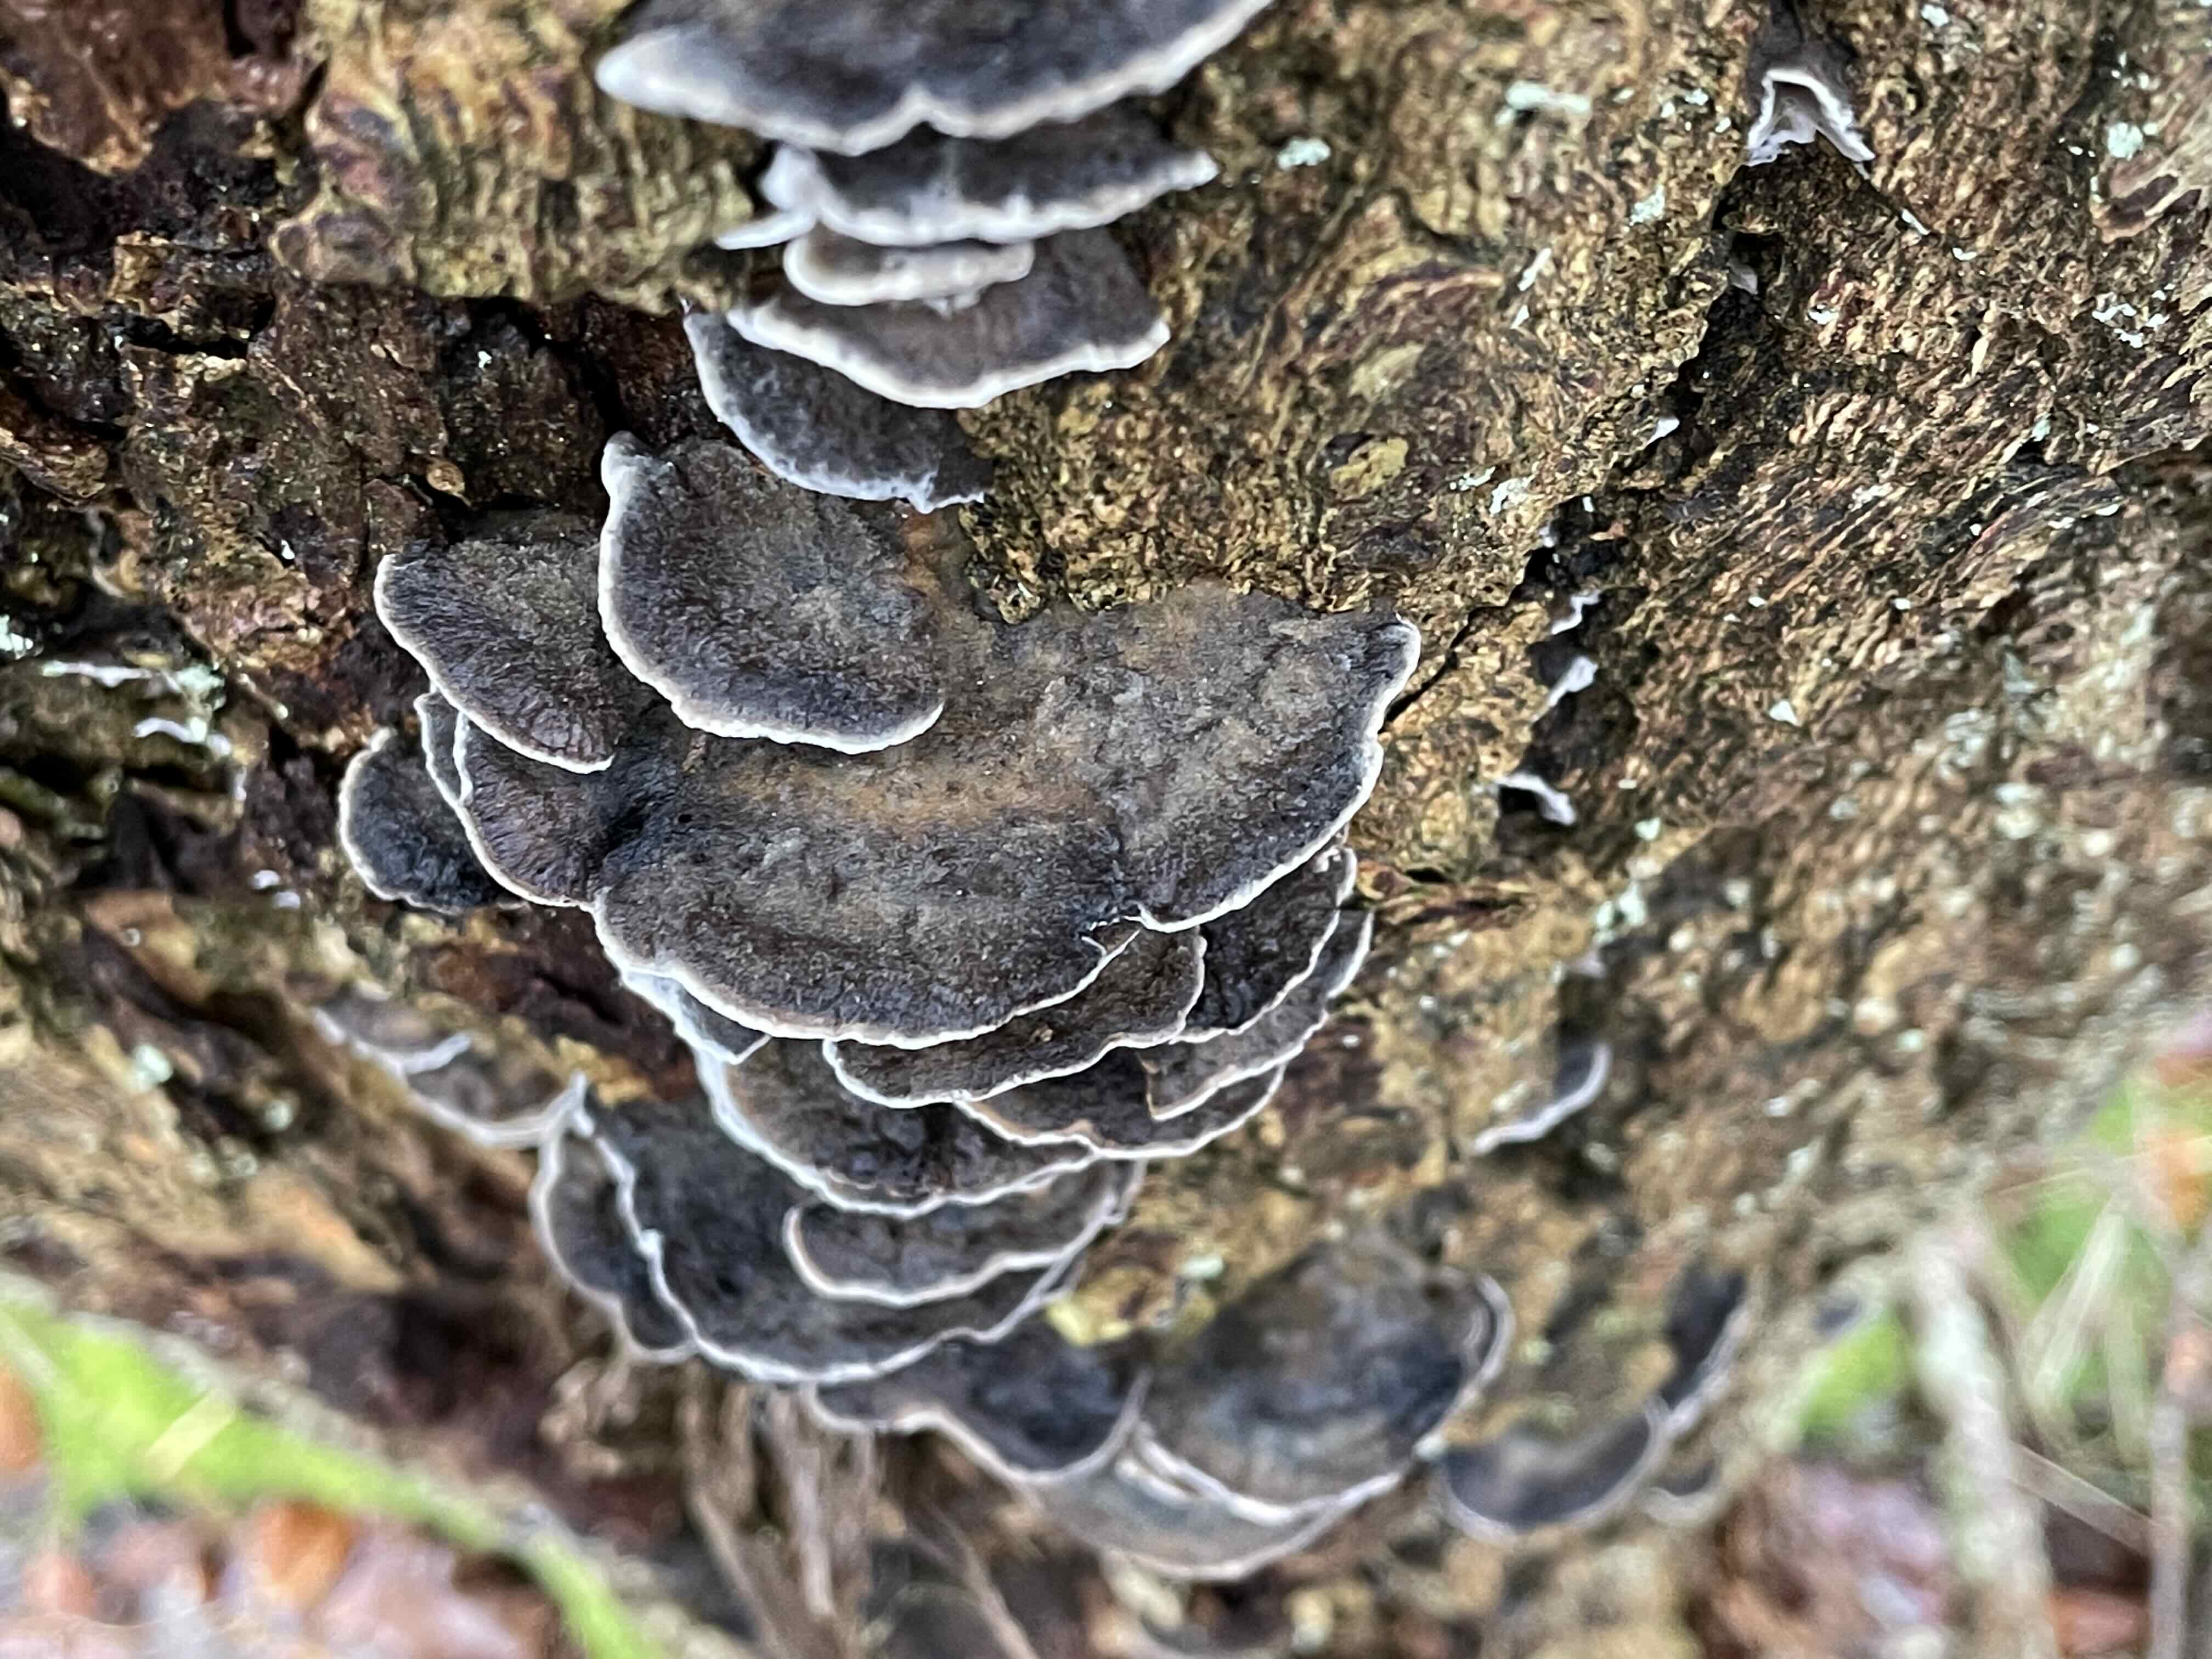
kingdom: Fungi
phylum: Basidiomycota
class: Agaricomycetes
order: Polyporales
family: Phanerochaetaceae
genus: Bjerkandera
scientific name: Bjerkandera adusta
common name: sveden sodporesvamp
